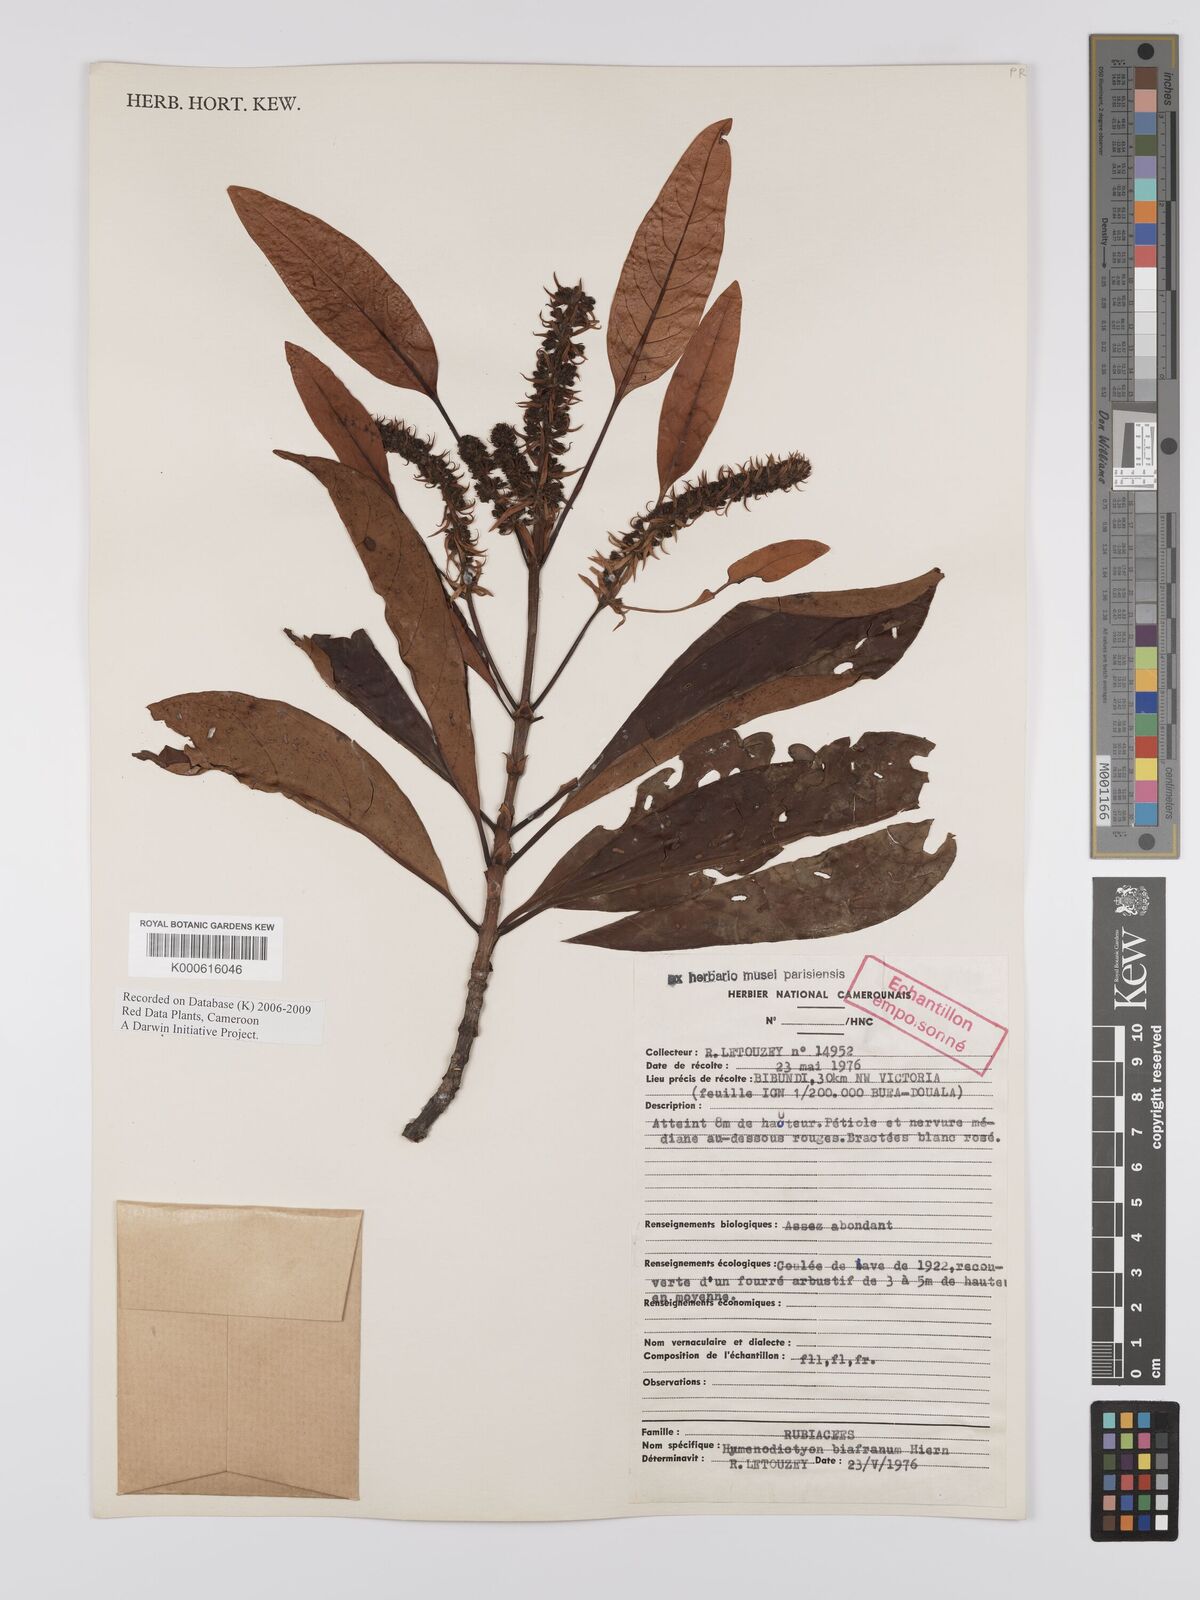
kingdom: Plantae
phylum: Tracheophyta
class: Magnoliopsida
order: Gentianales
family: Rubiaceae
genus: Hymenodictyon
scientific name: Hymenodictyon biafranum
